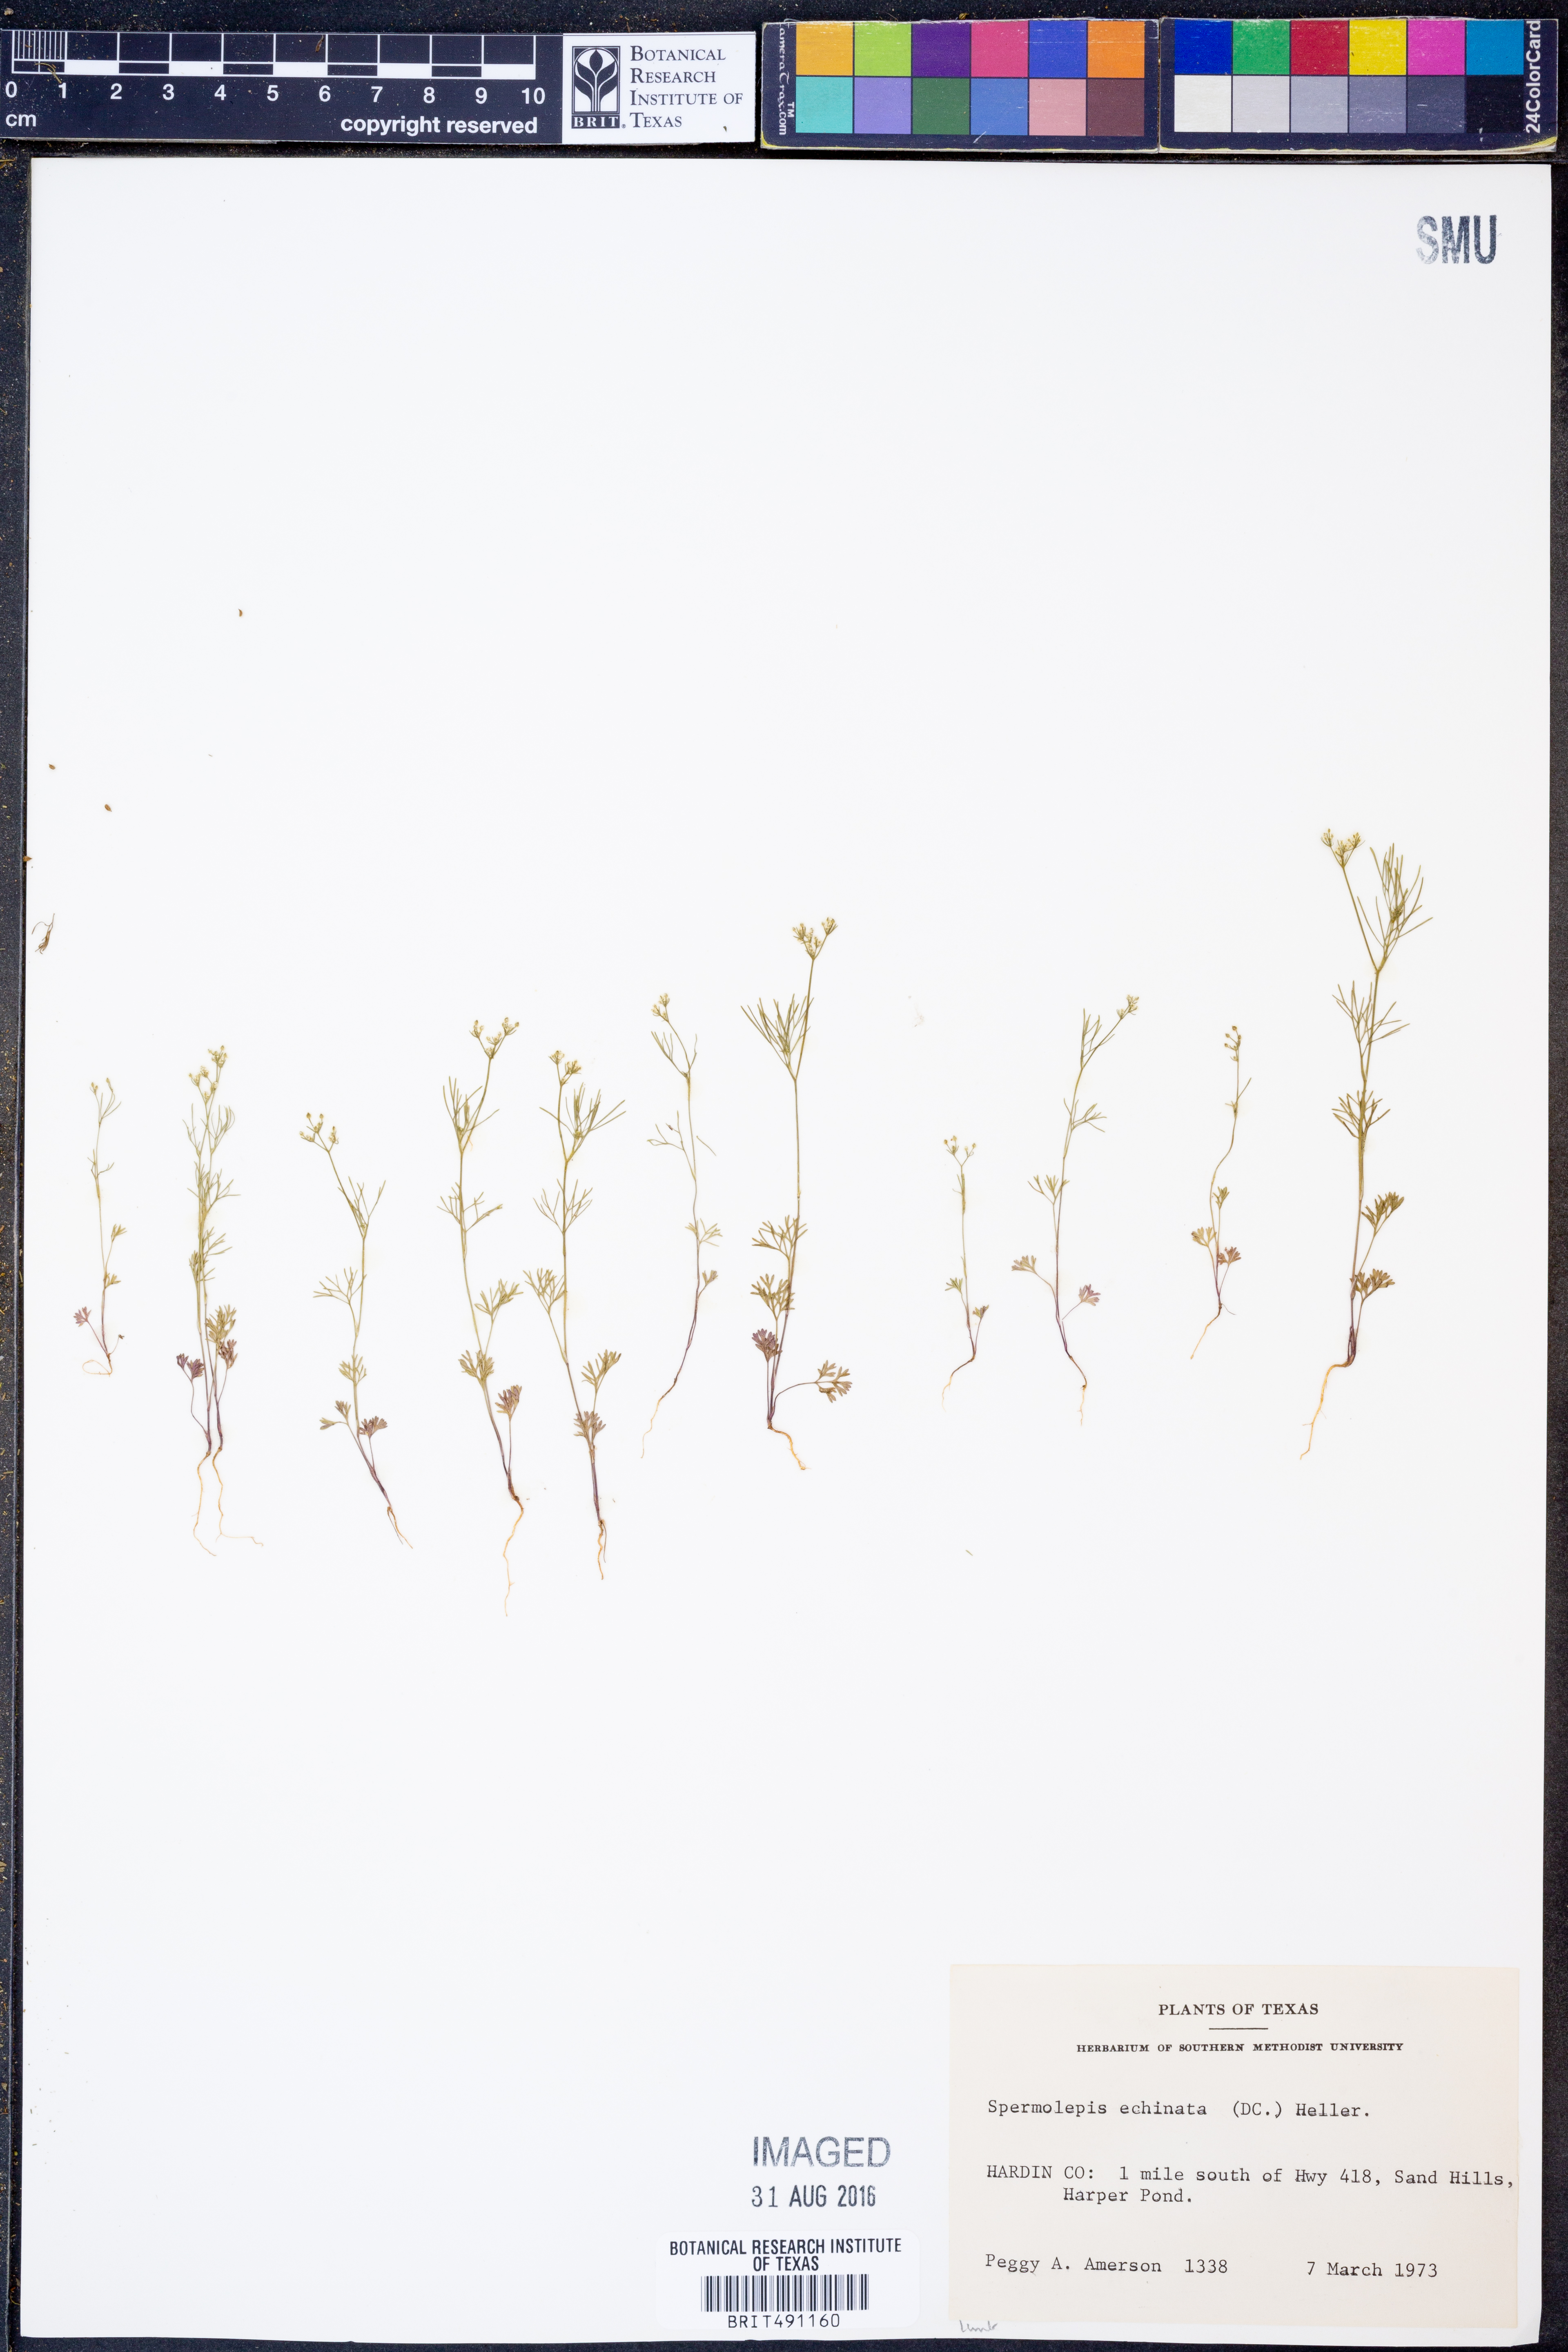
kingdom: Plantae
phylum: Tracheophyta
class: Magnoliopsida
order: Apiales
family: Apiaceae
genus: Spermolepis
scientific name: Spermolepis echinata
